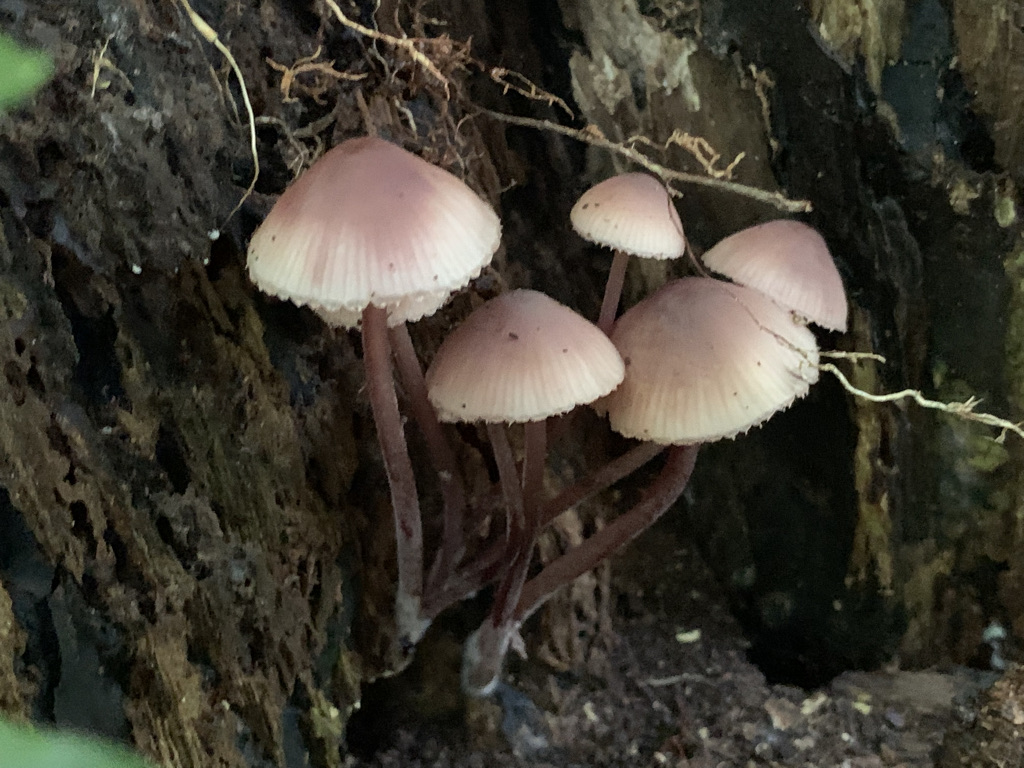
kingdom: Fungi
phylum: Basidiomycota
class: Agaricomycetes
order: Agaricales
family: Mycenaceae
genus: Mycena
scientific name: Mycena haematopus
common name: blødende huesvamp
